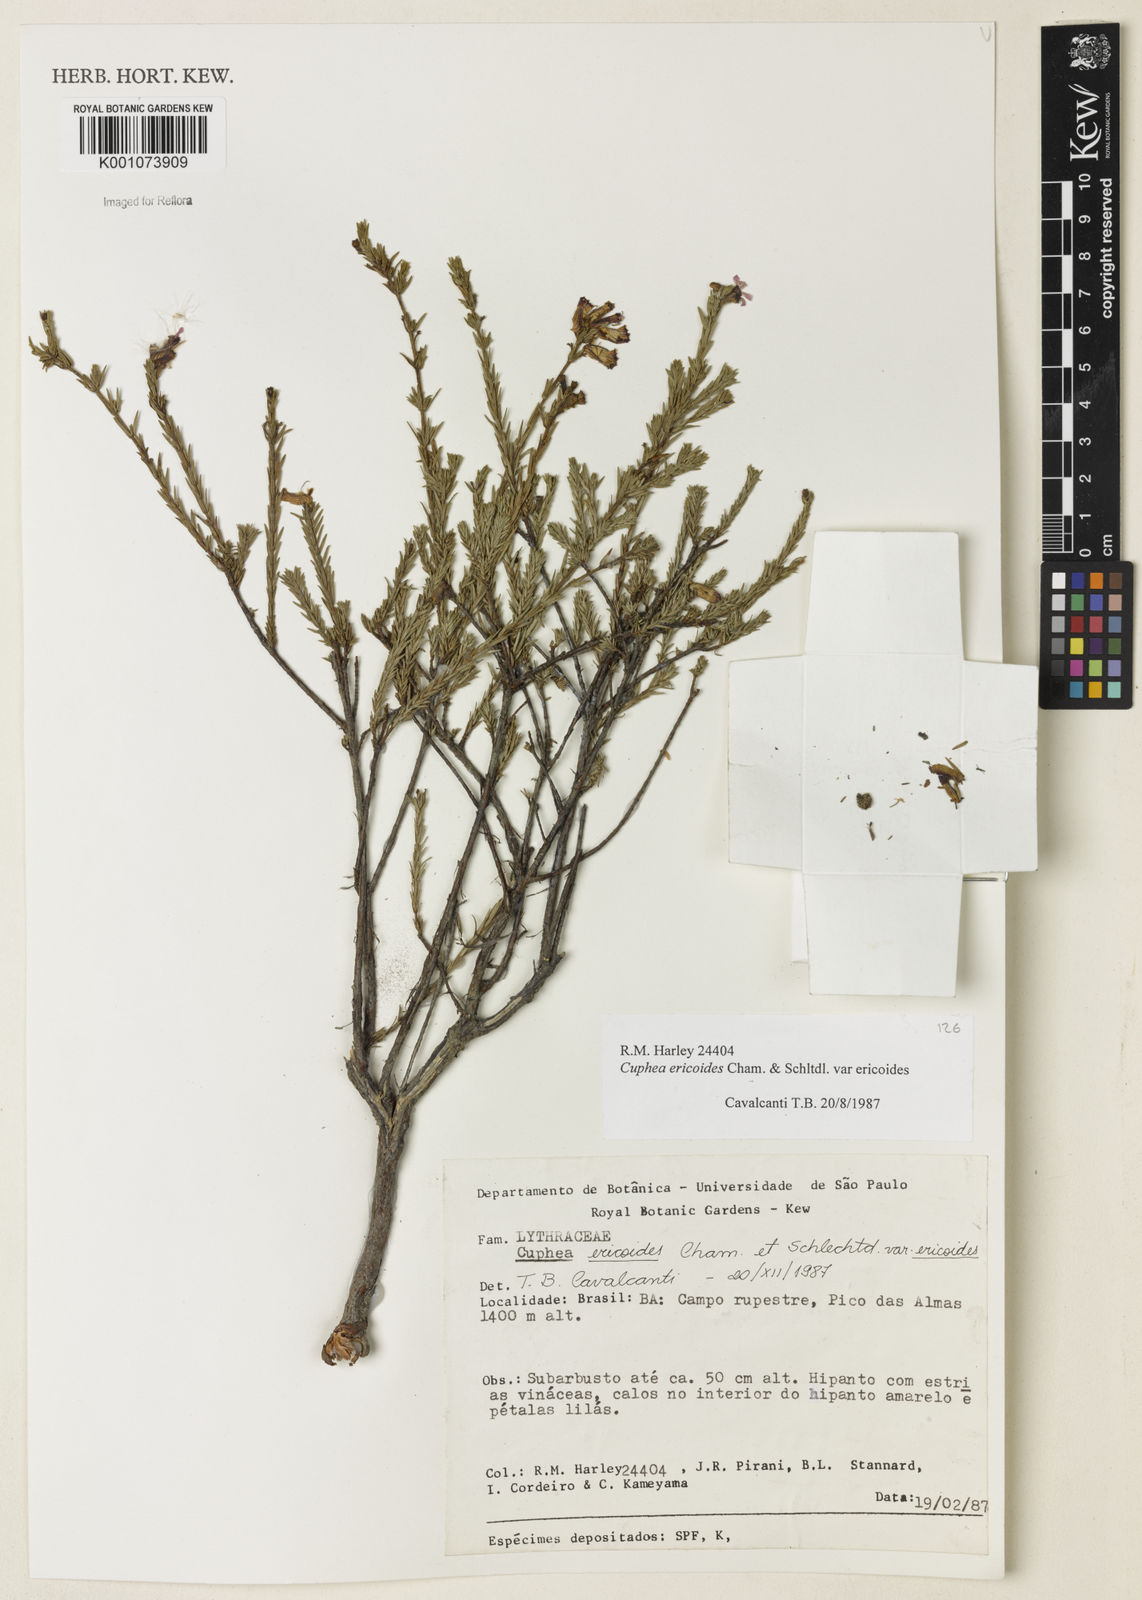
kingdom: Plantae
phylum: Tracheophyta
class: Magnoliopsida
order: Myrtales
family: Lythraceae
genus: Cuphea
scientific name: Cuphea ericoides
